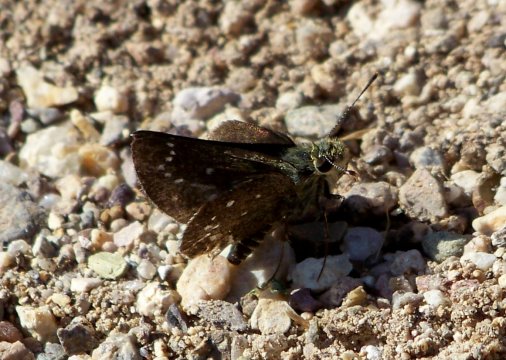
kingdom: Animalia
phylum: Arthropoda
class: Insecta
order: Lepidoptera
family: Hesperiidae
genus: Mastor
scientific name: Mastor elissa
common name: Elissa Roadside-Skipper
